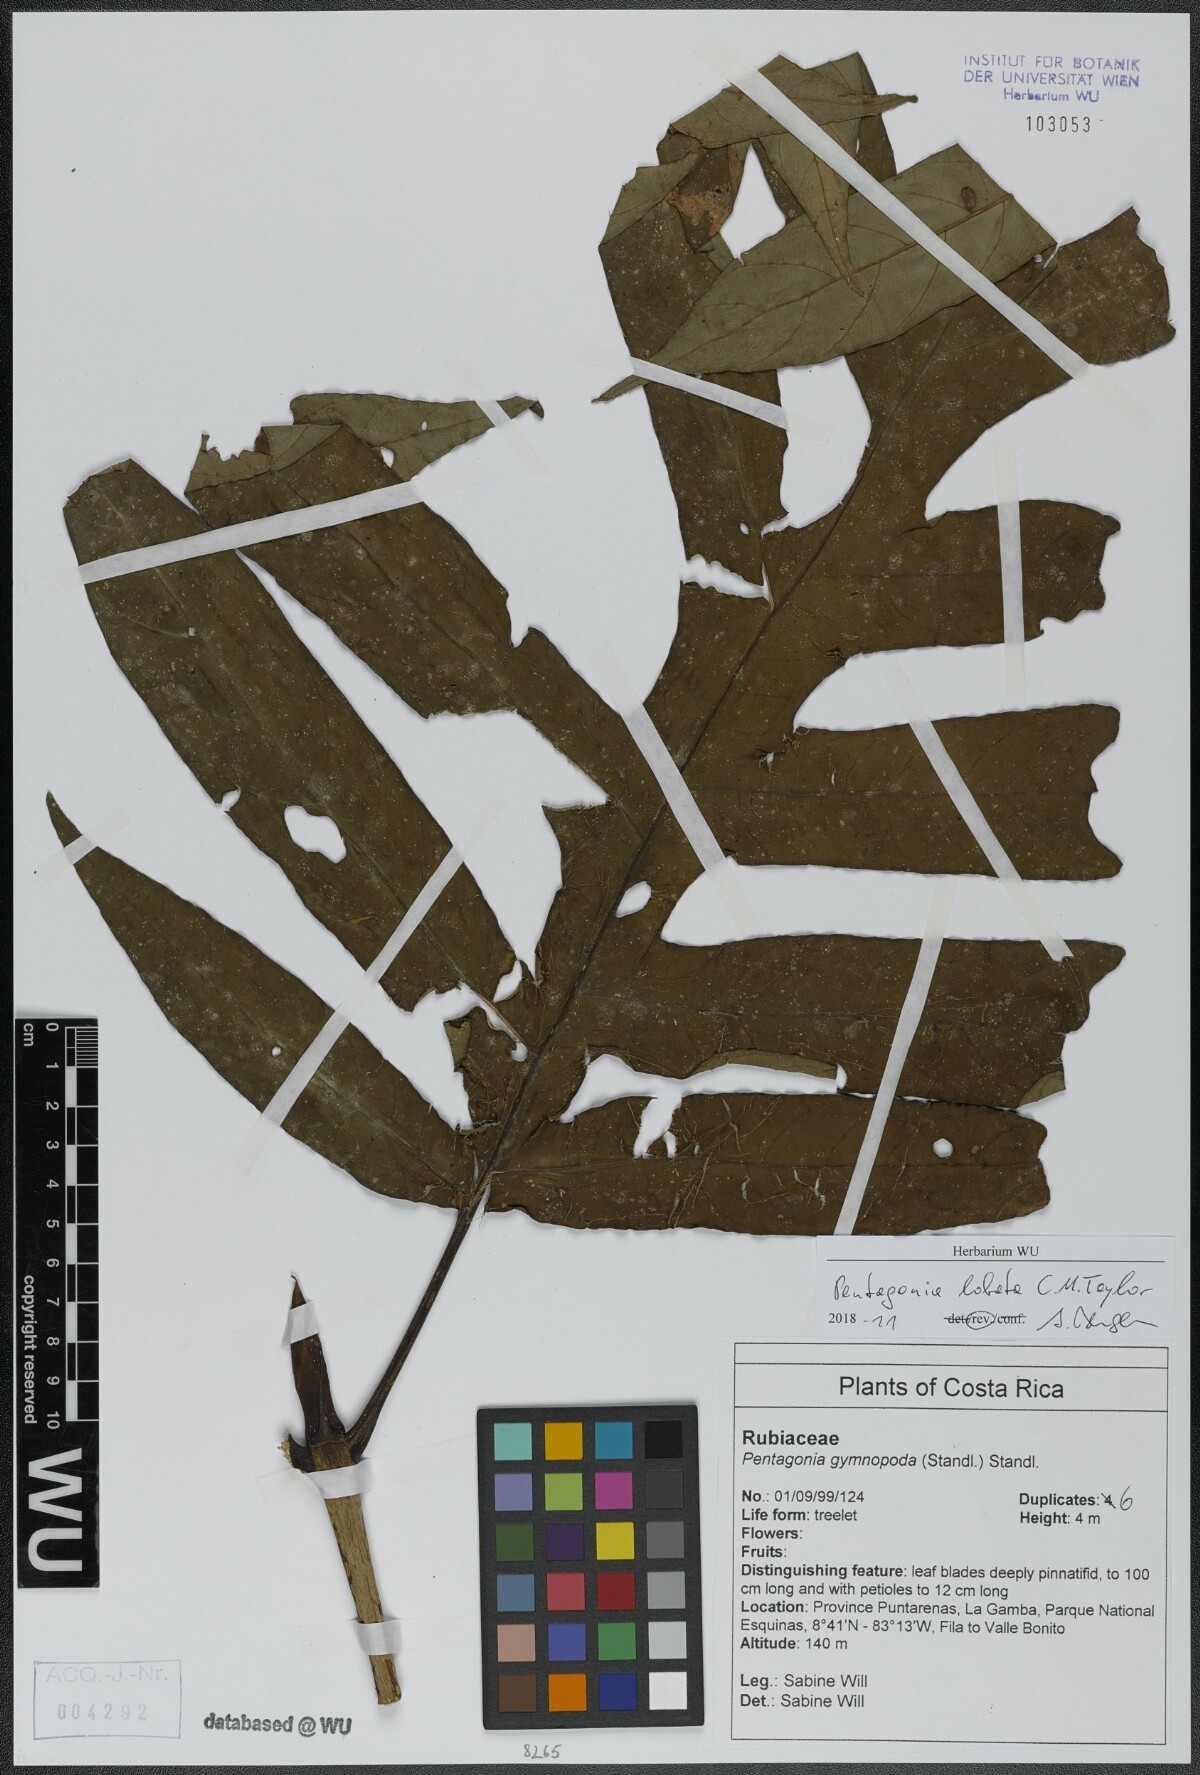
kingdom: Plantae
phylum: Tracheophyta
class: Magnoliopsida
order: Gentianales
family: Rubiaceae
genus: Pentagonia
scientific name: Pentagonia lobata
